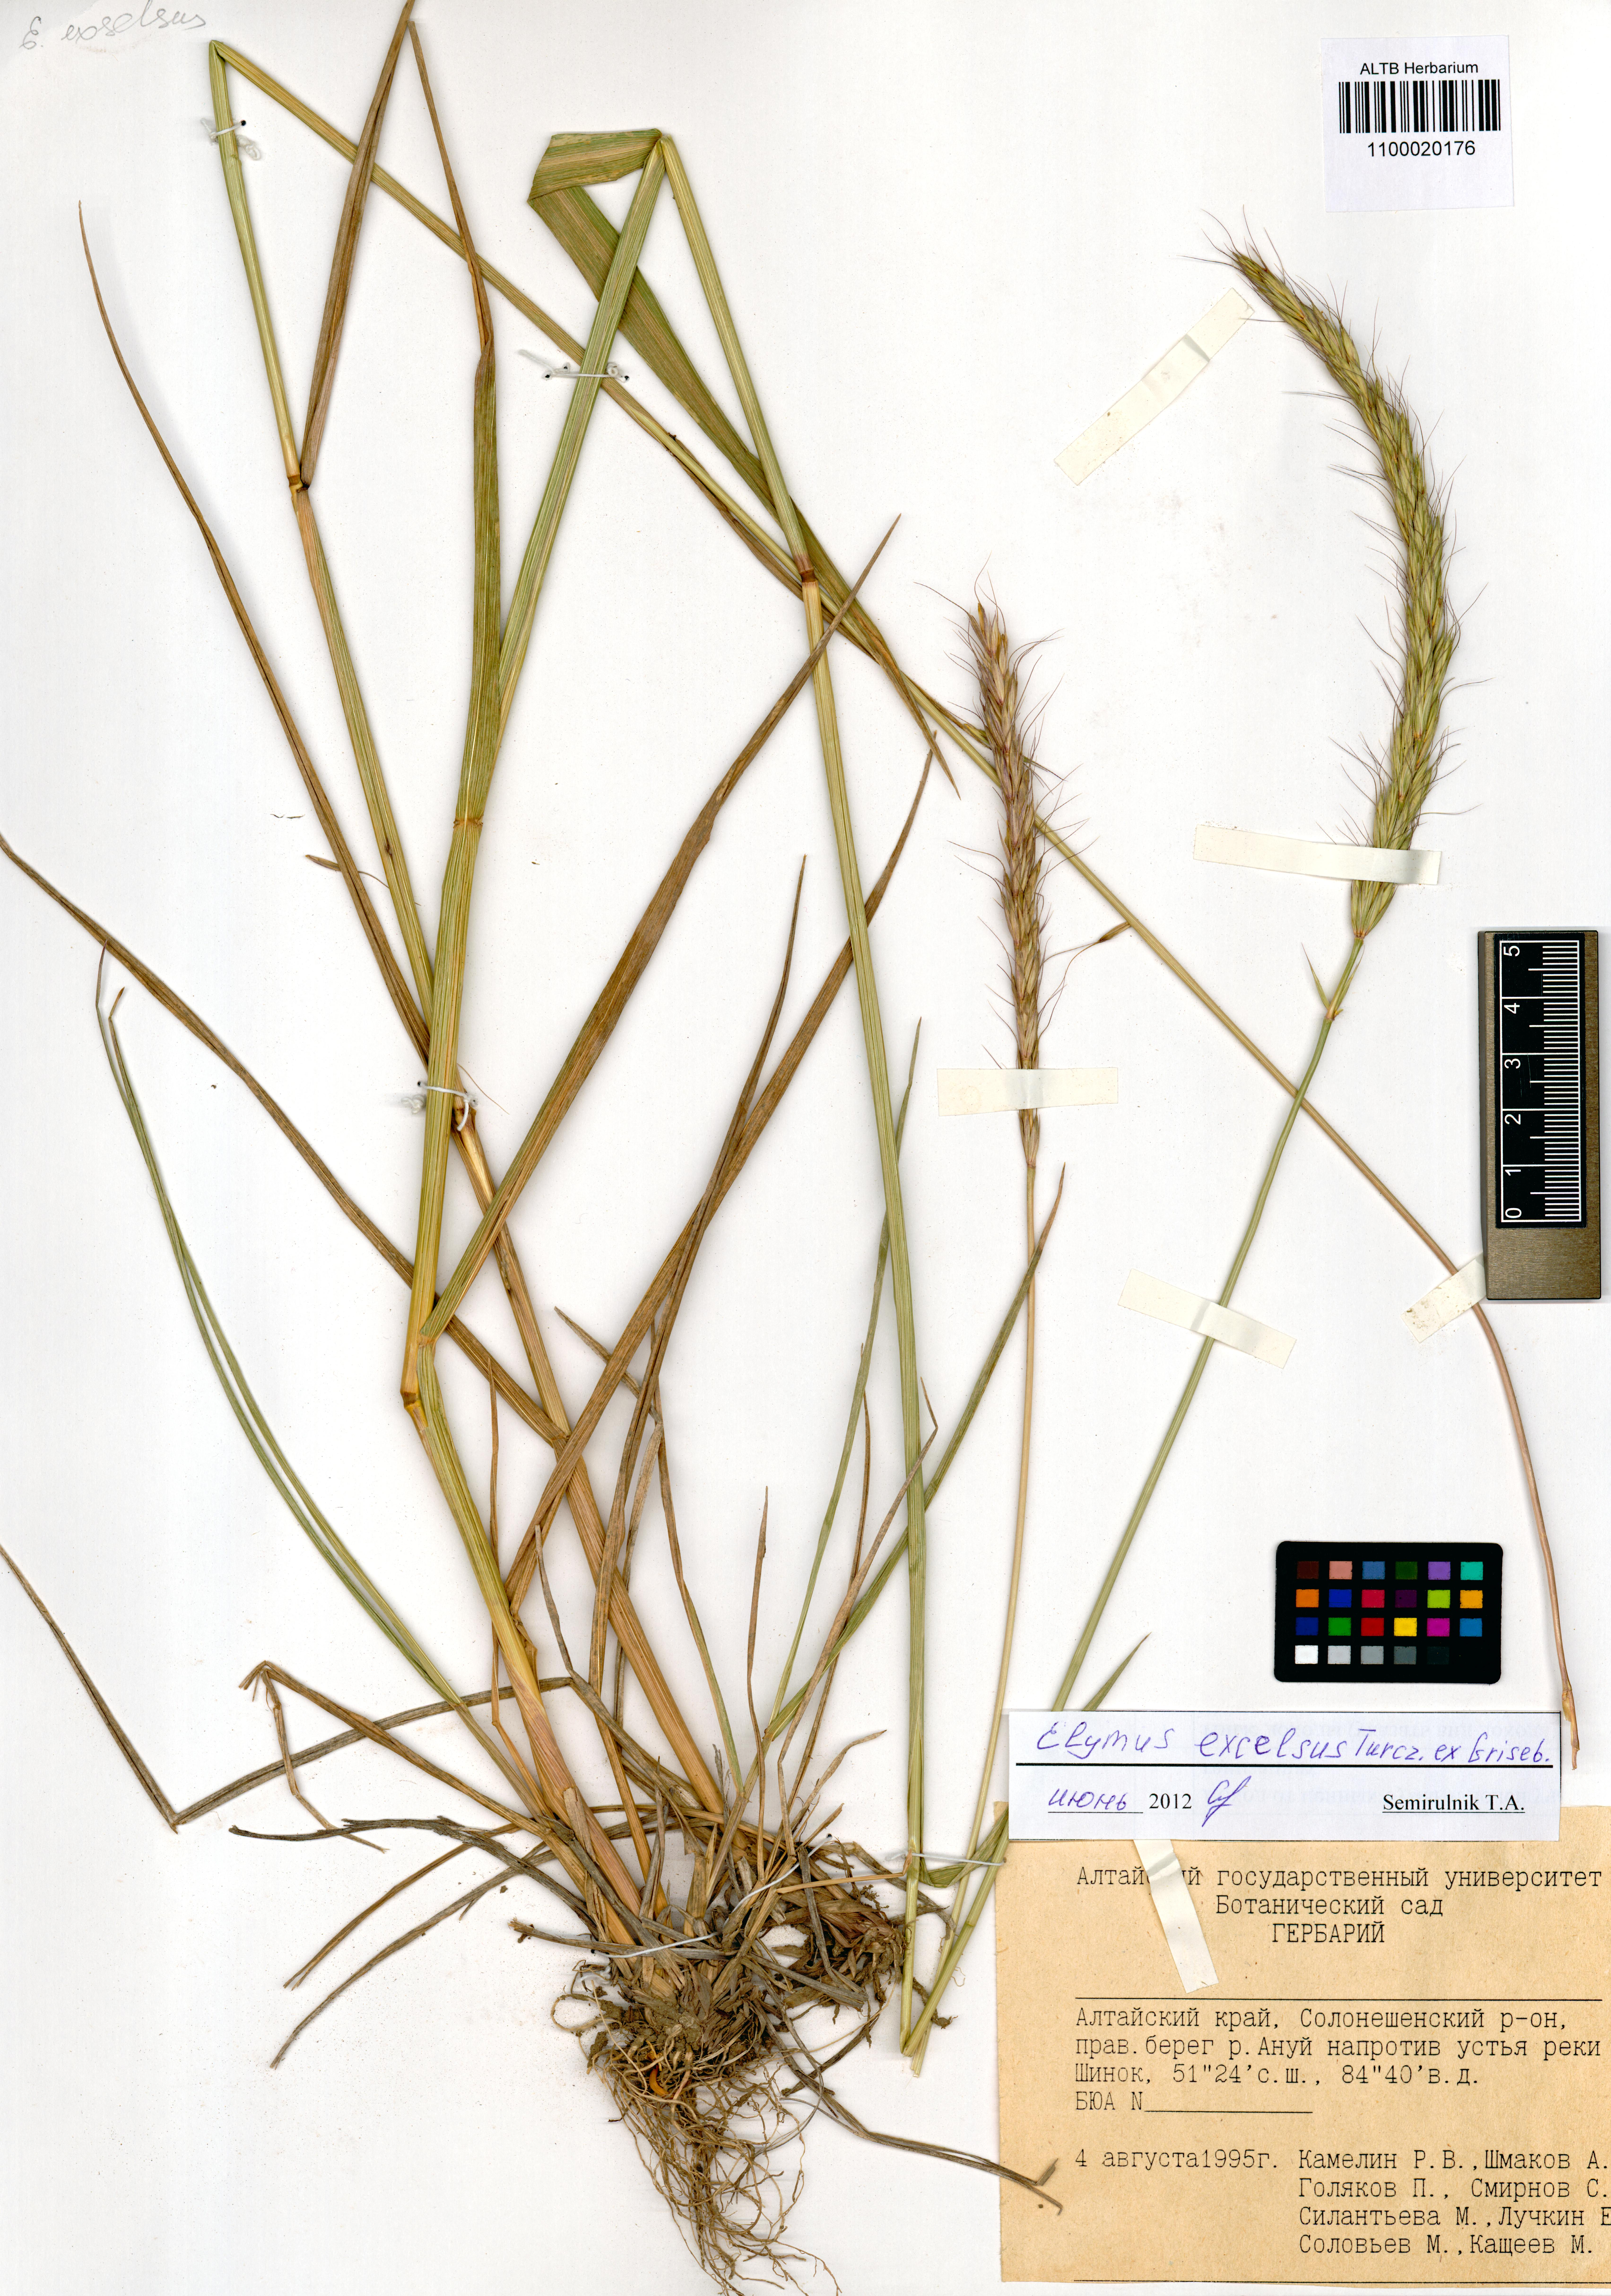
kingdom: Plantae
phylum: Tracheophyta
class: Liliopsida
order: Poales
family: Poaceae
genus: Elymus
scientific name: Elymus dahuricus
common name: Dahurian wild rye
